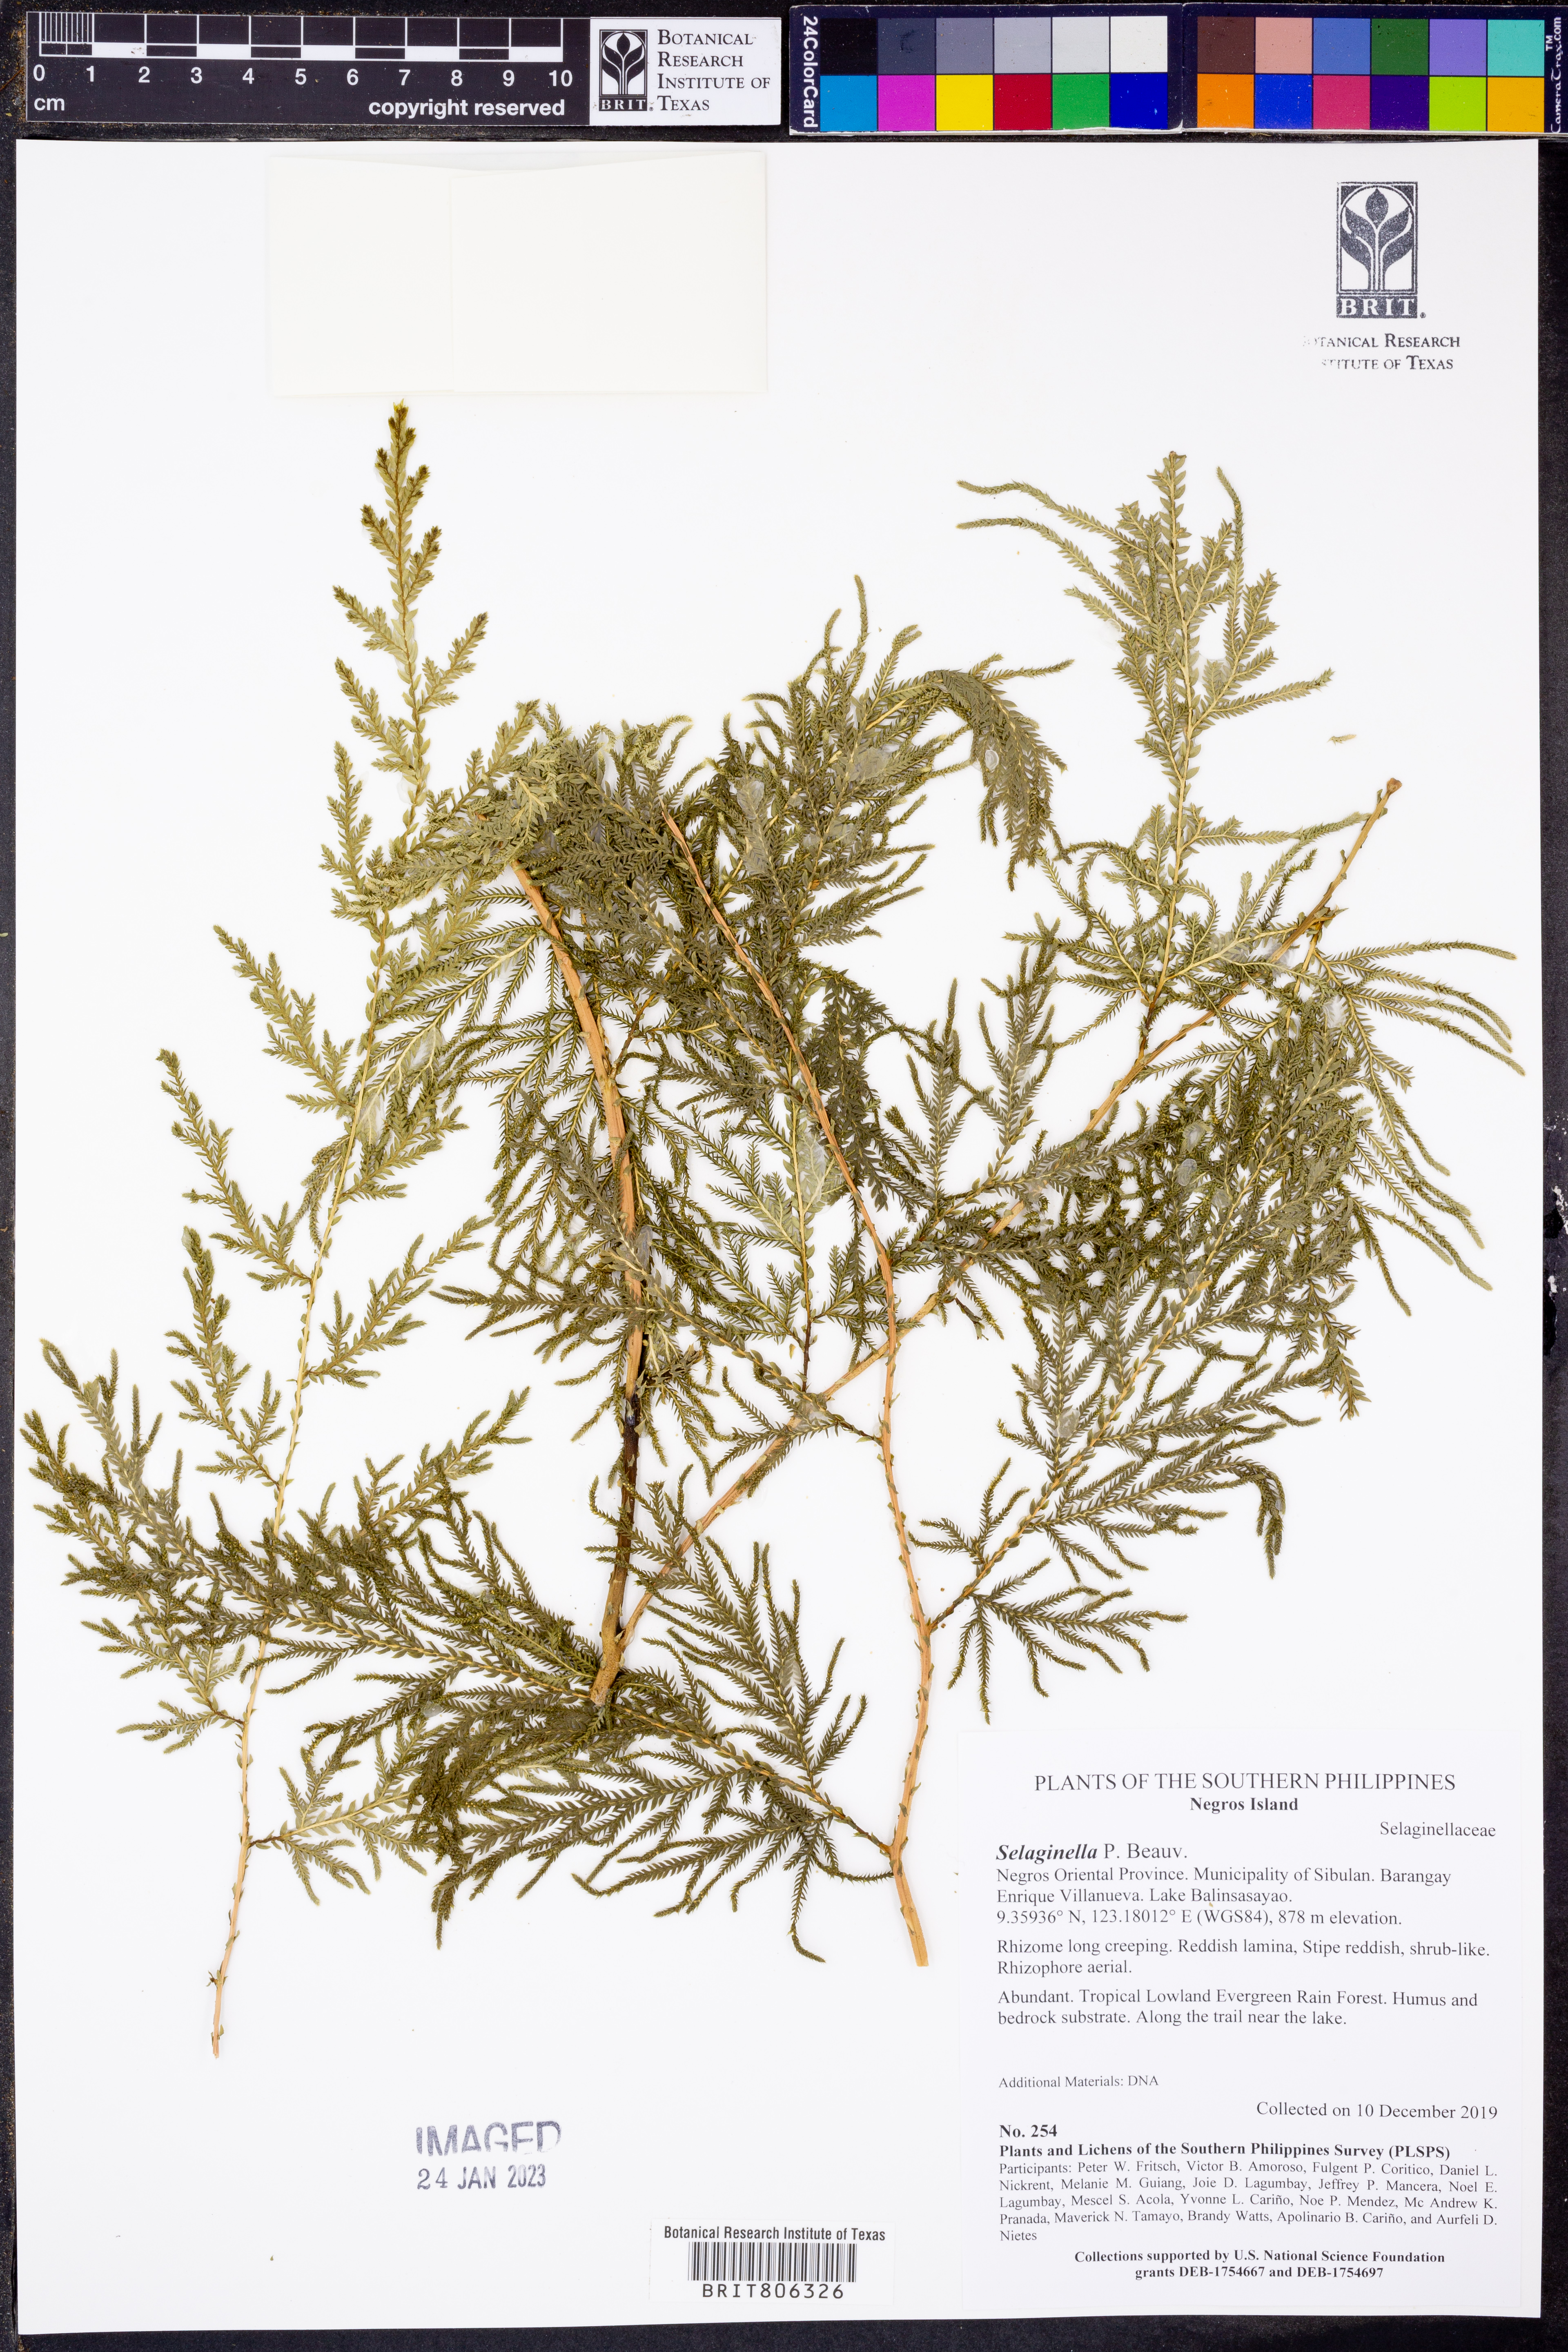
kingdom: Plantae
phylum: Tracheophyta
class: Lycopodiopsida
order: Selaginellales
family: Selaginellaceae
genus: Selaginella
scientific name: Selaginella
